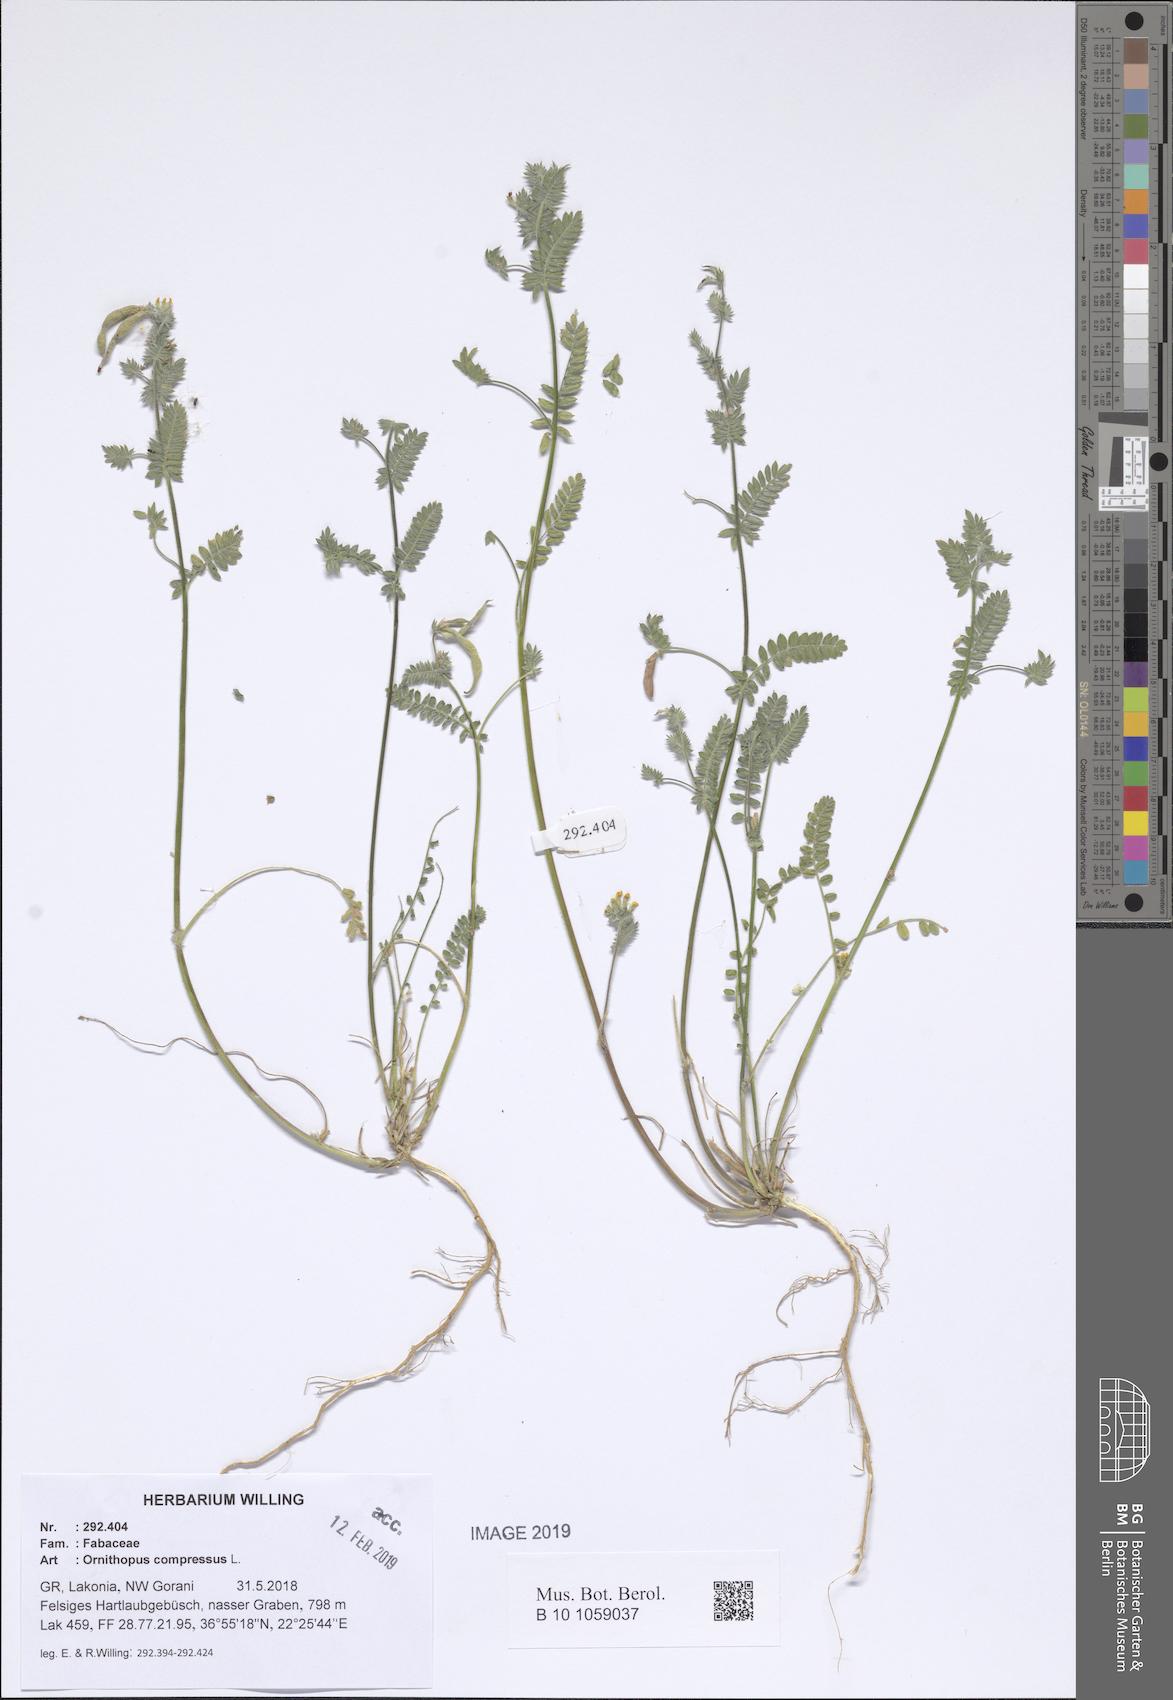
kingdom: Plantae
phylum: Tracheophyta
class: Magnoliopsida
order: Fabales
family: Fabaceae
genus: Ornithopus
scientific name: Ornithopus compressus
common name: Yellow serradella
